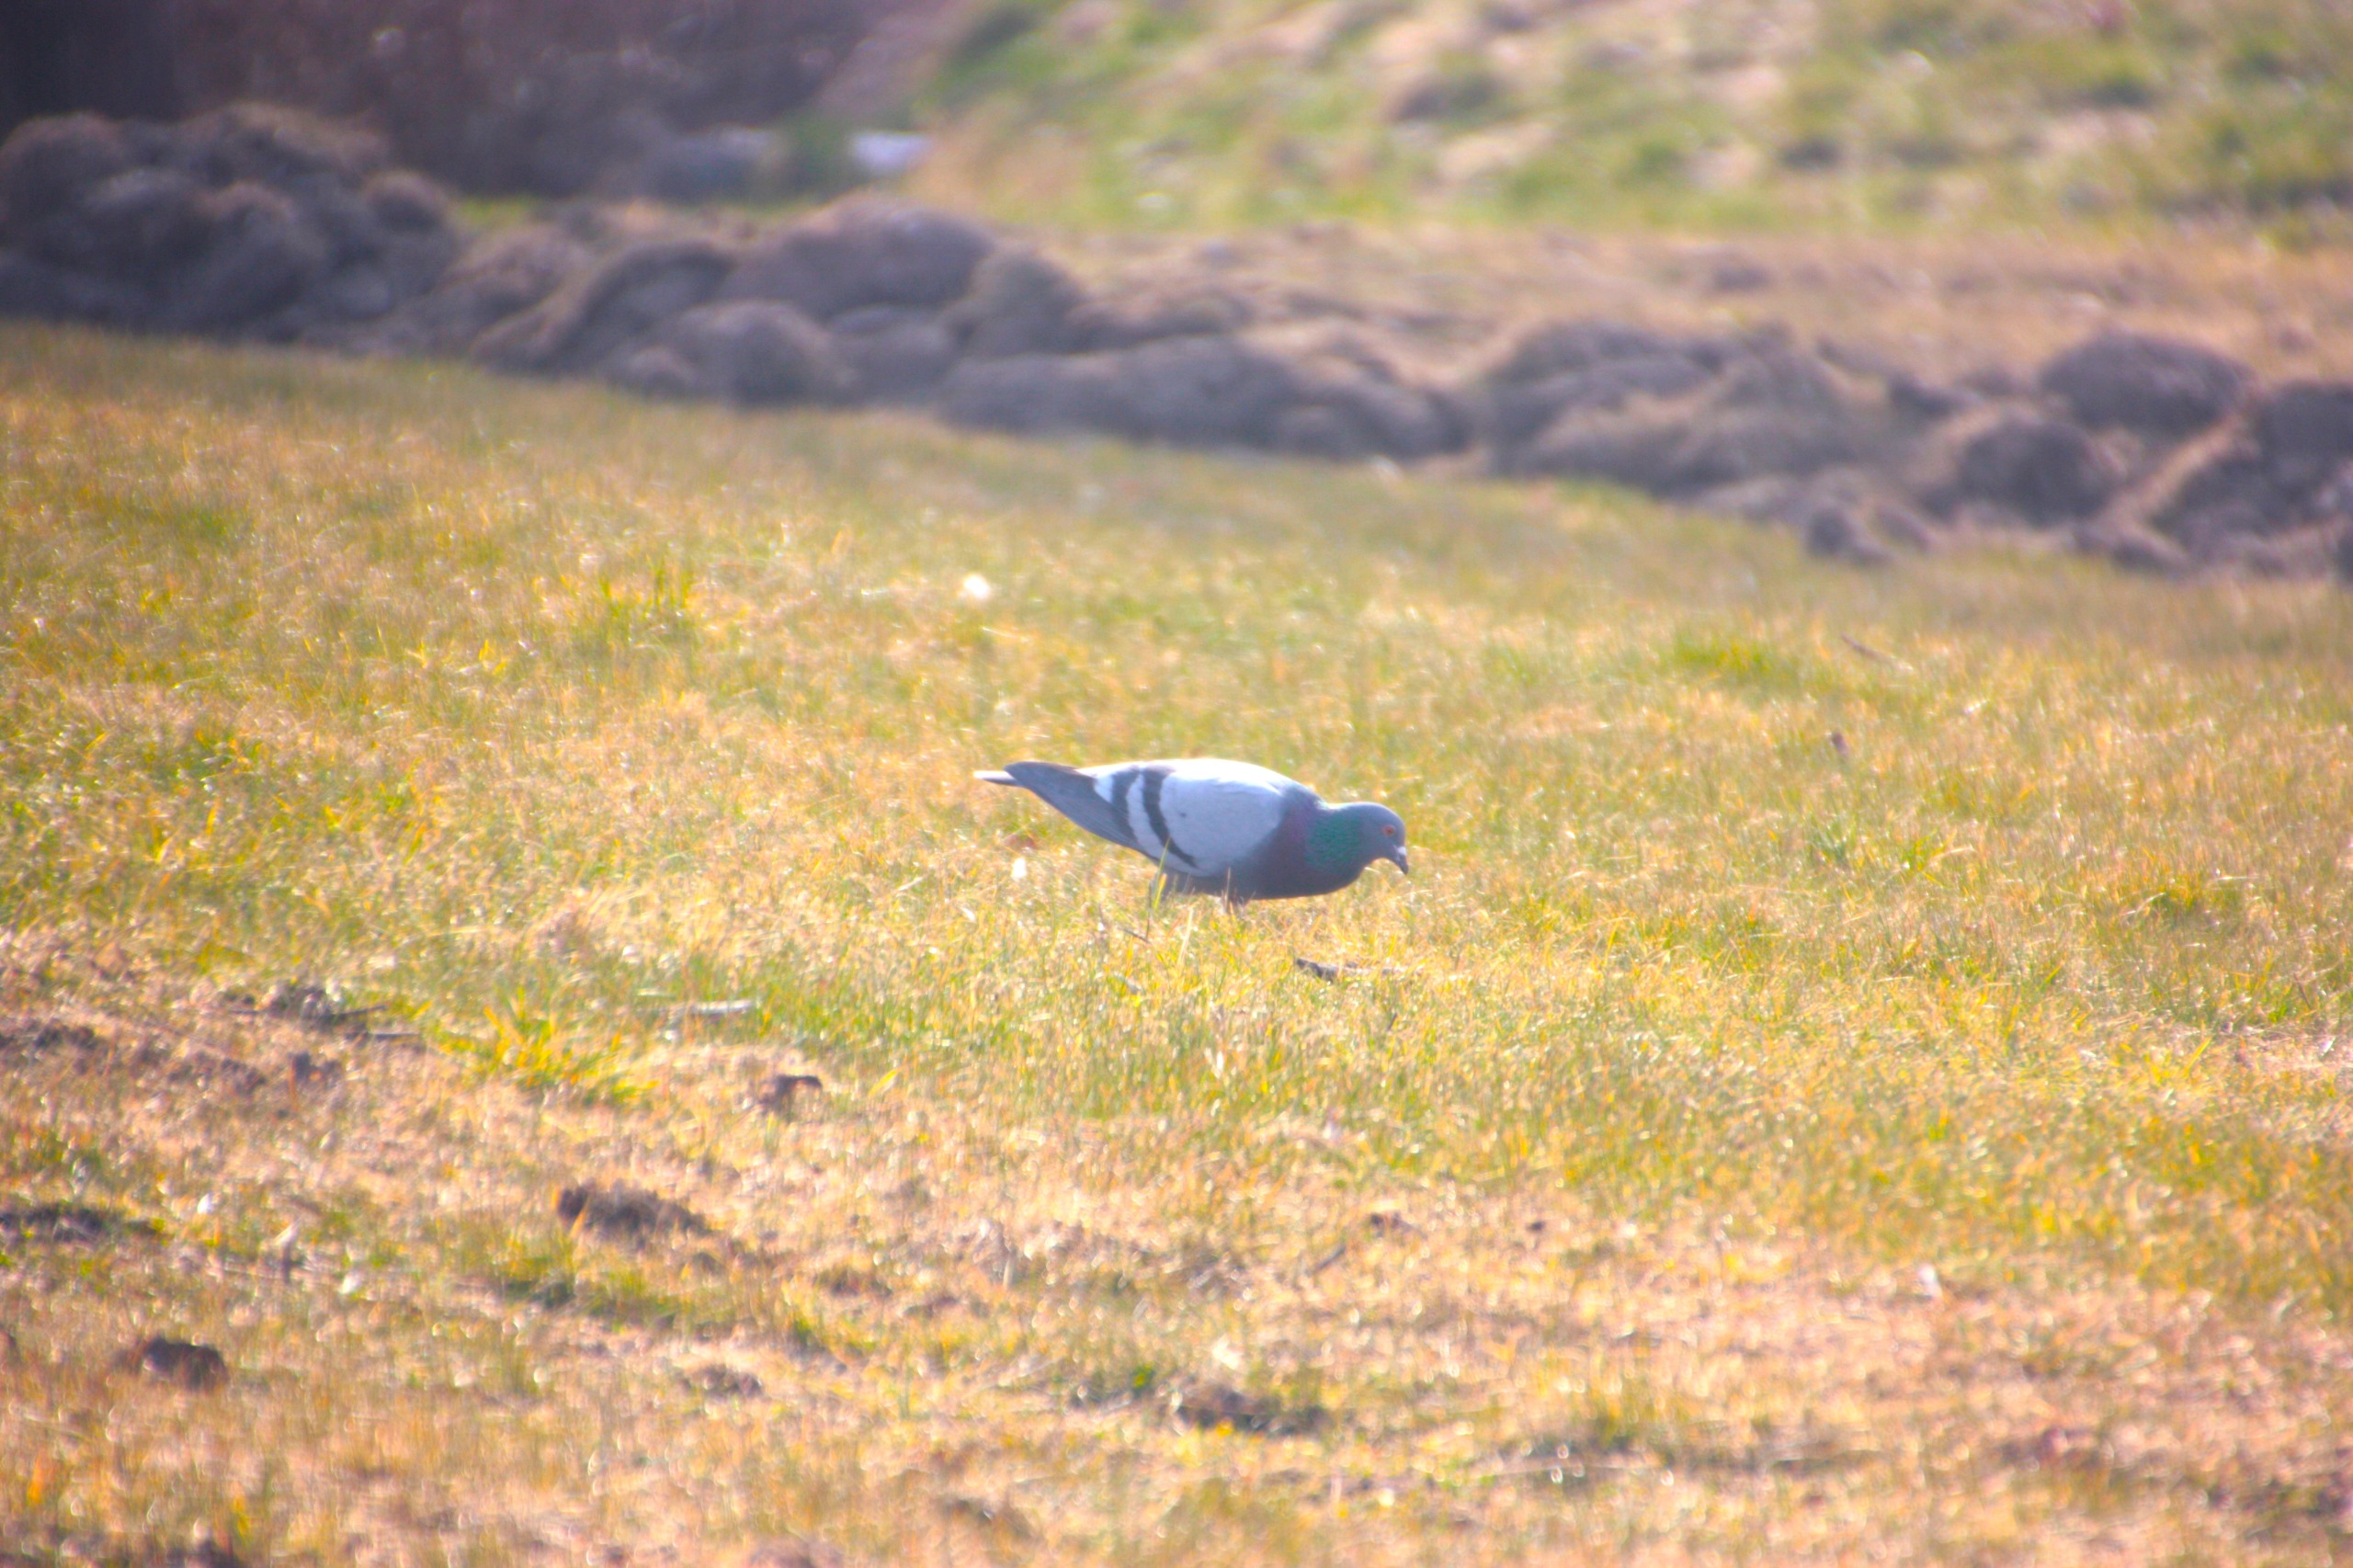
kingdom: Animalia
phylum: Chordata
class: Aves
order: Columbiformes
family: Columbidae
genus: Columba
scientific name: Columba livia
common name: Klippedue
